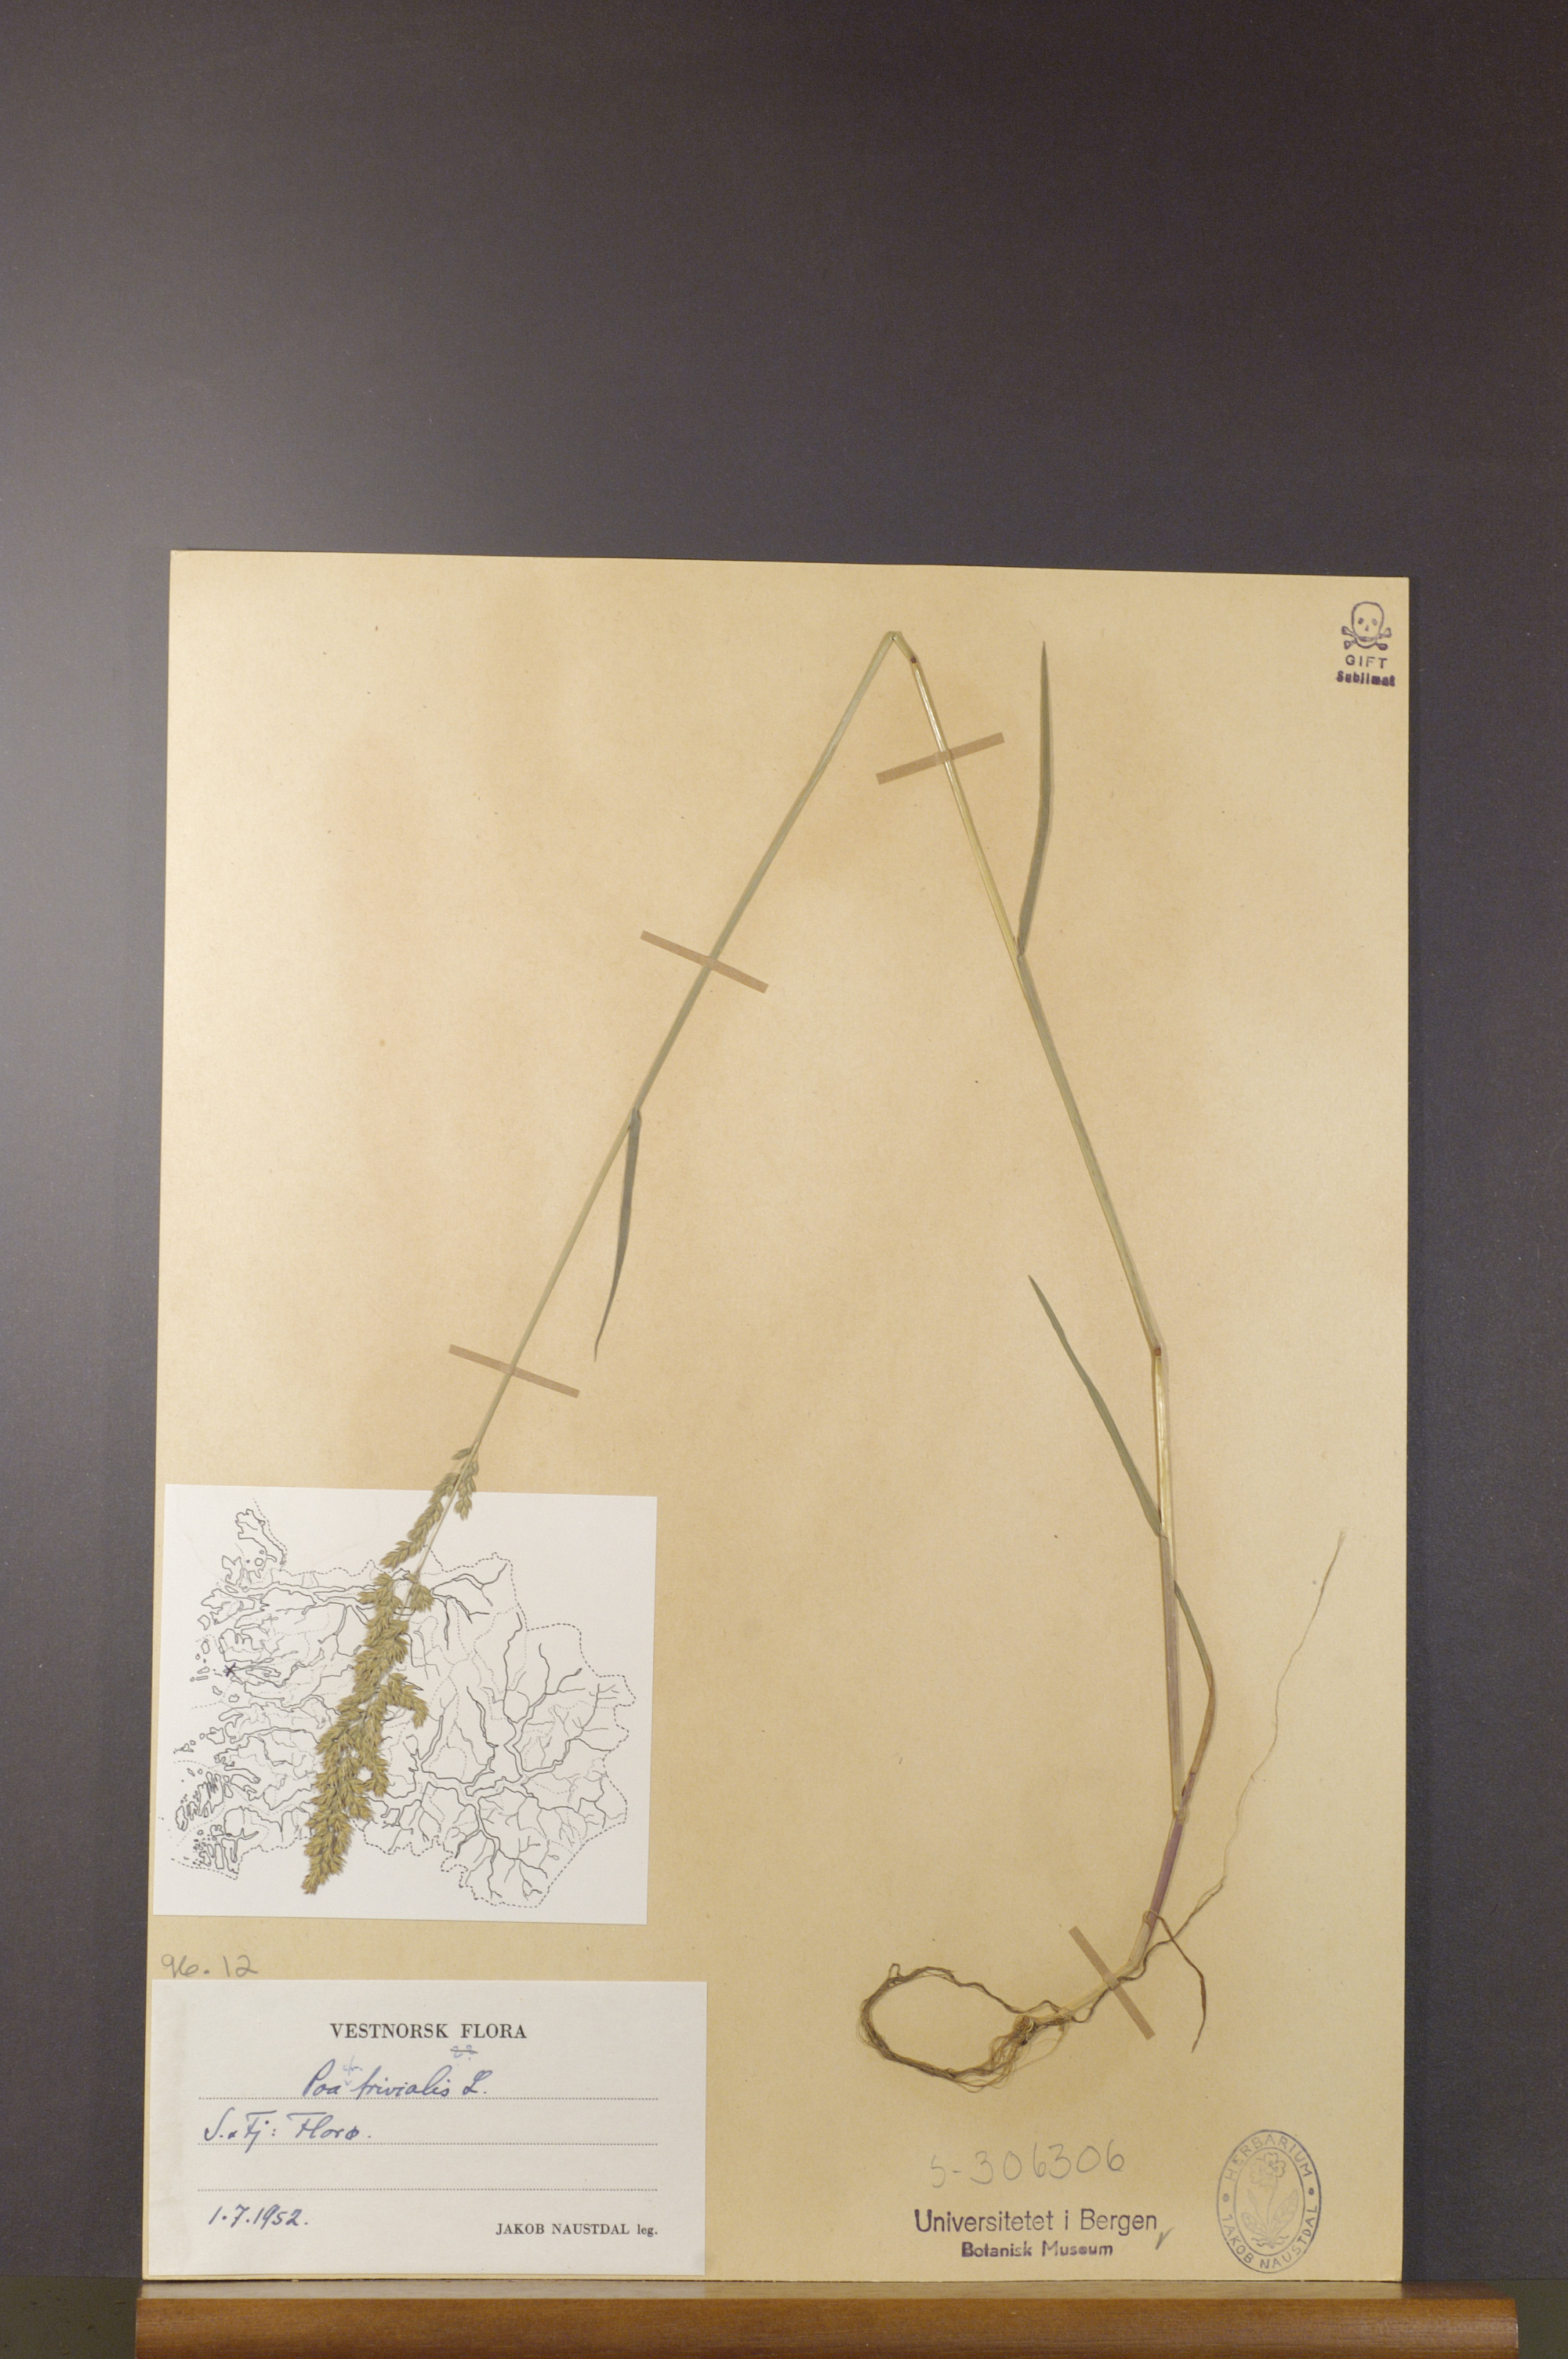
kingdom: Plantae
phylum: Tracheophyta
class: Liliopsida
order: Poales
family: Poaceae
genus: Poa
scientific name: Poa trivialis
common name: Rough bluegrass
